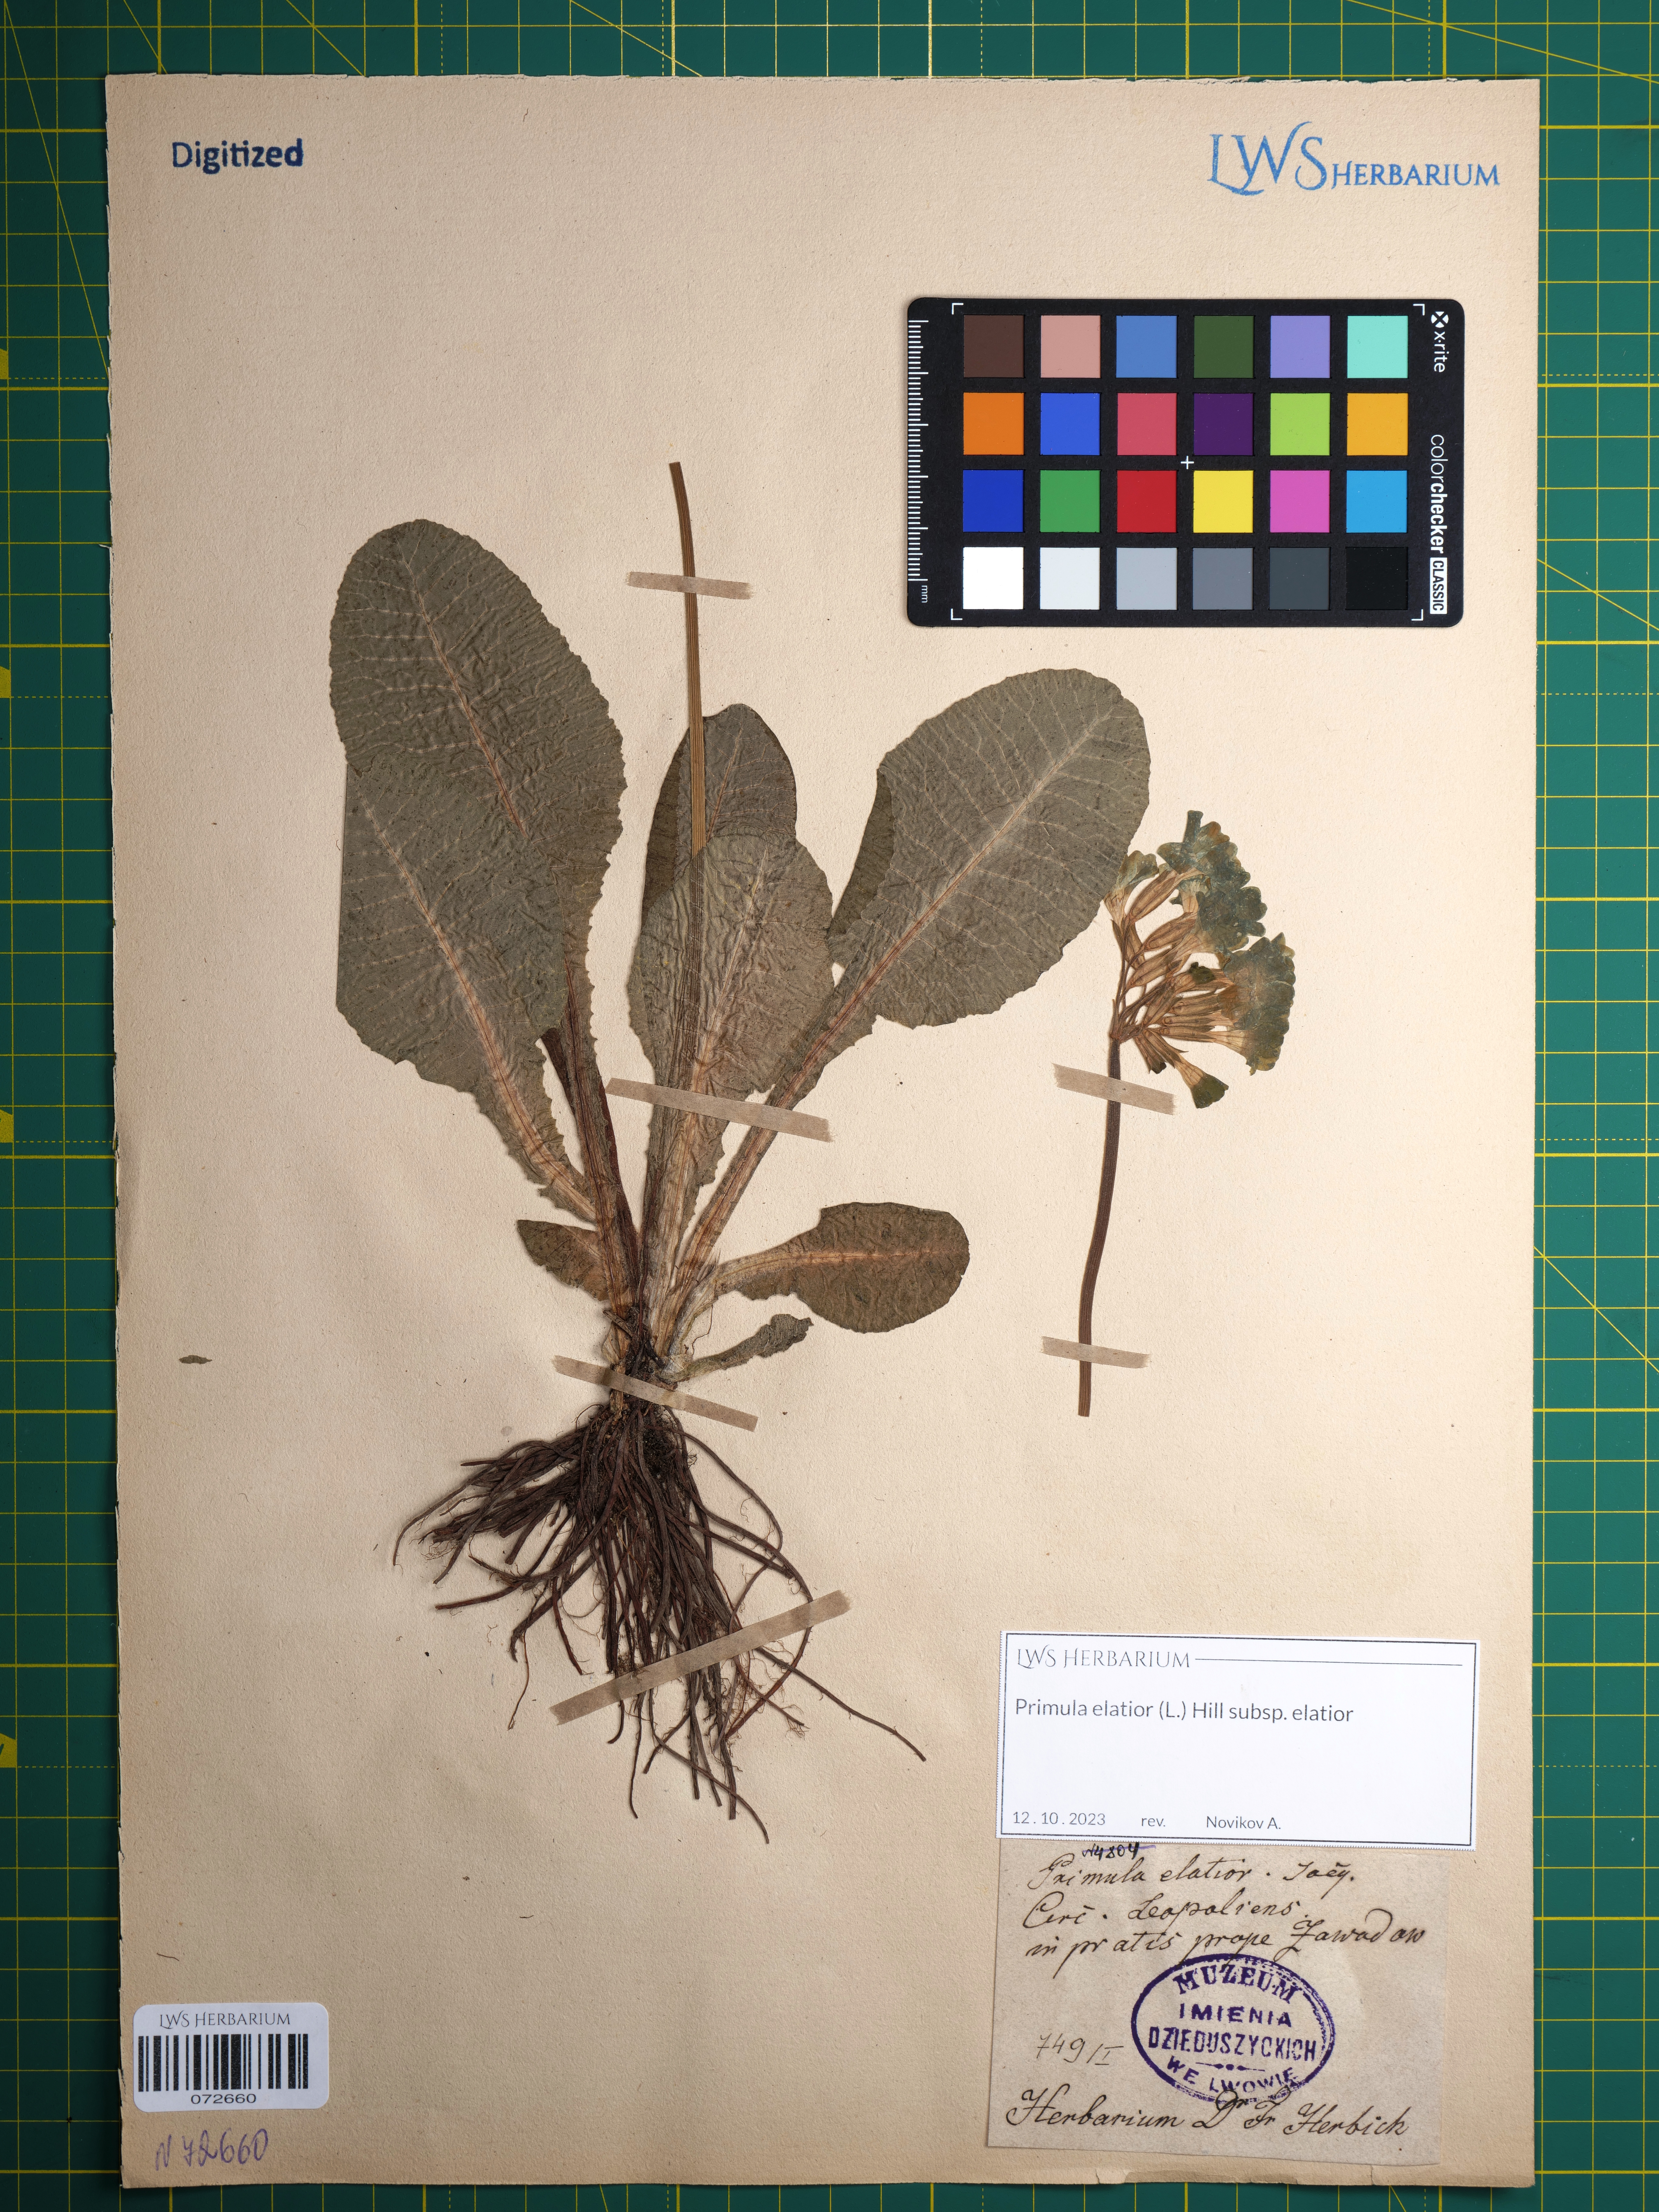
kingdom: Plantae
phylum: Tracheophyta
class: Magnoliopsida
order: Ericales
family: Primulaceae
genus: Primula
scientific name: Primula elatior
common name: Oxlip
